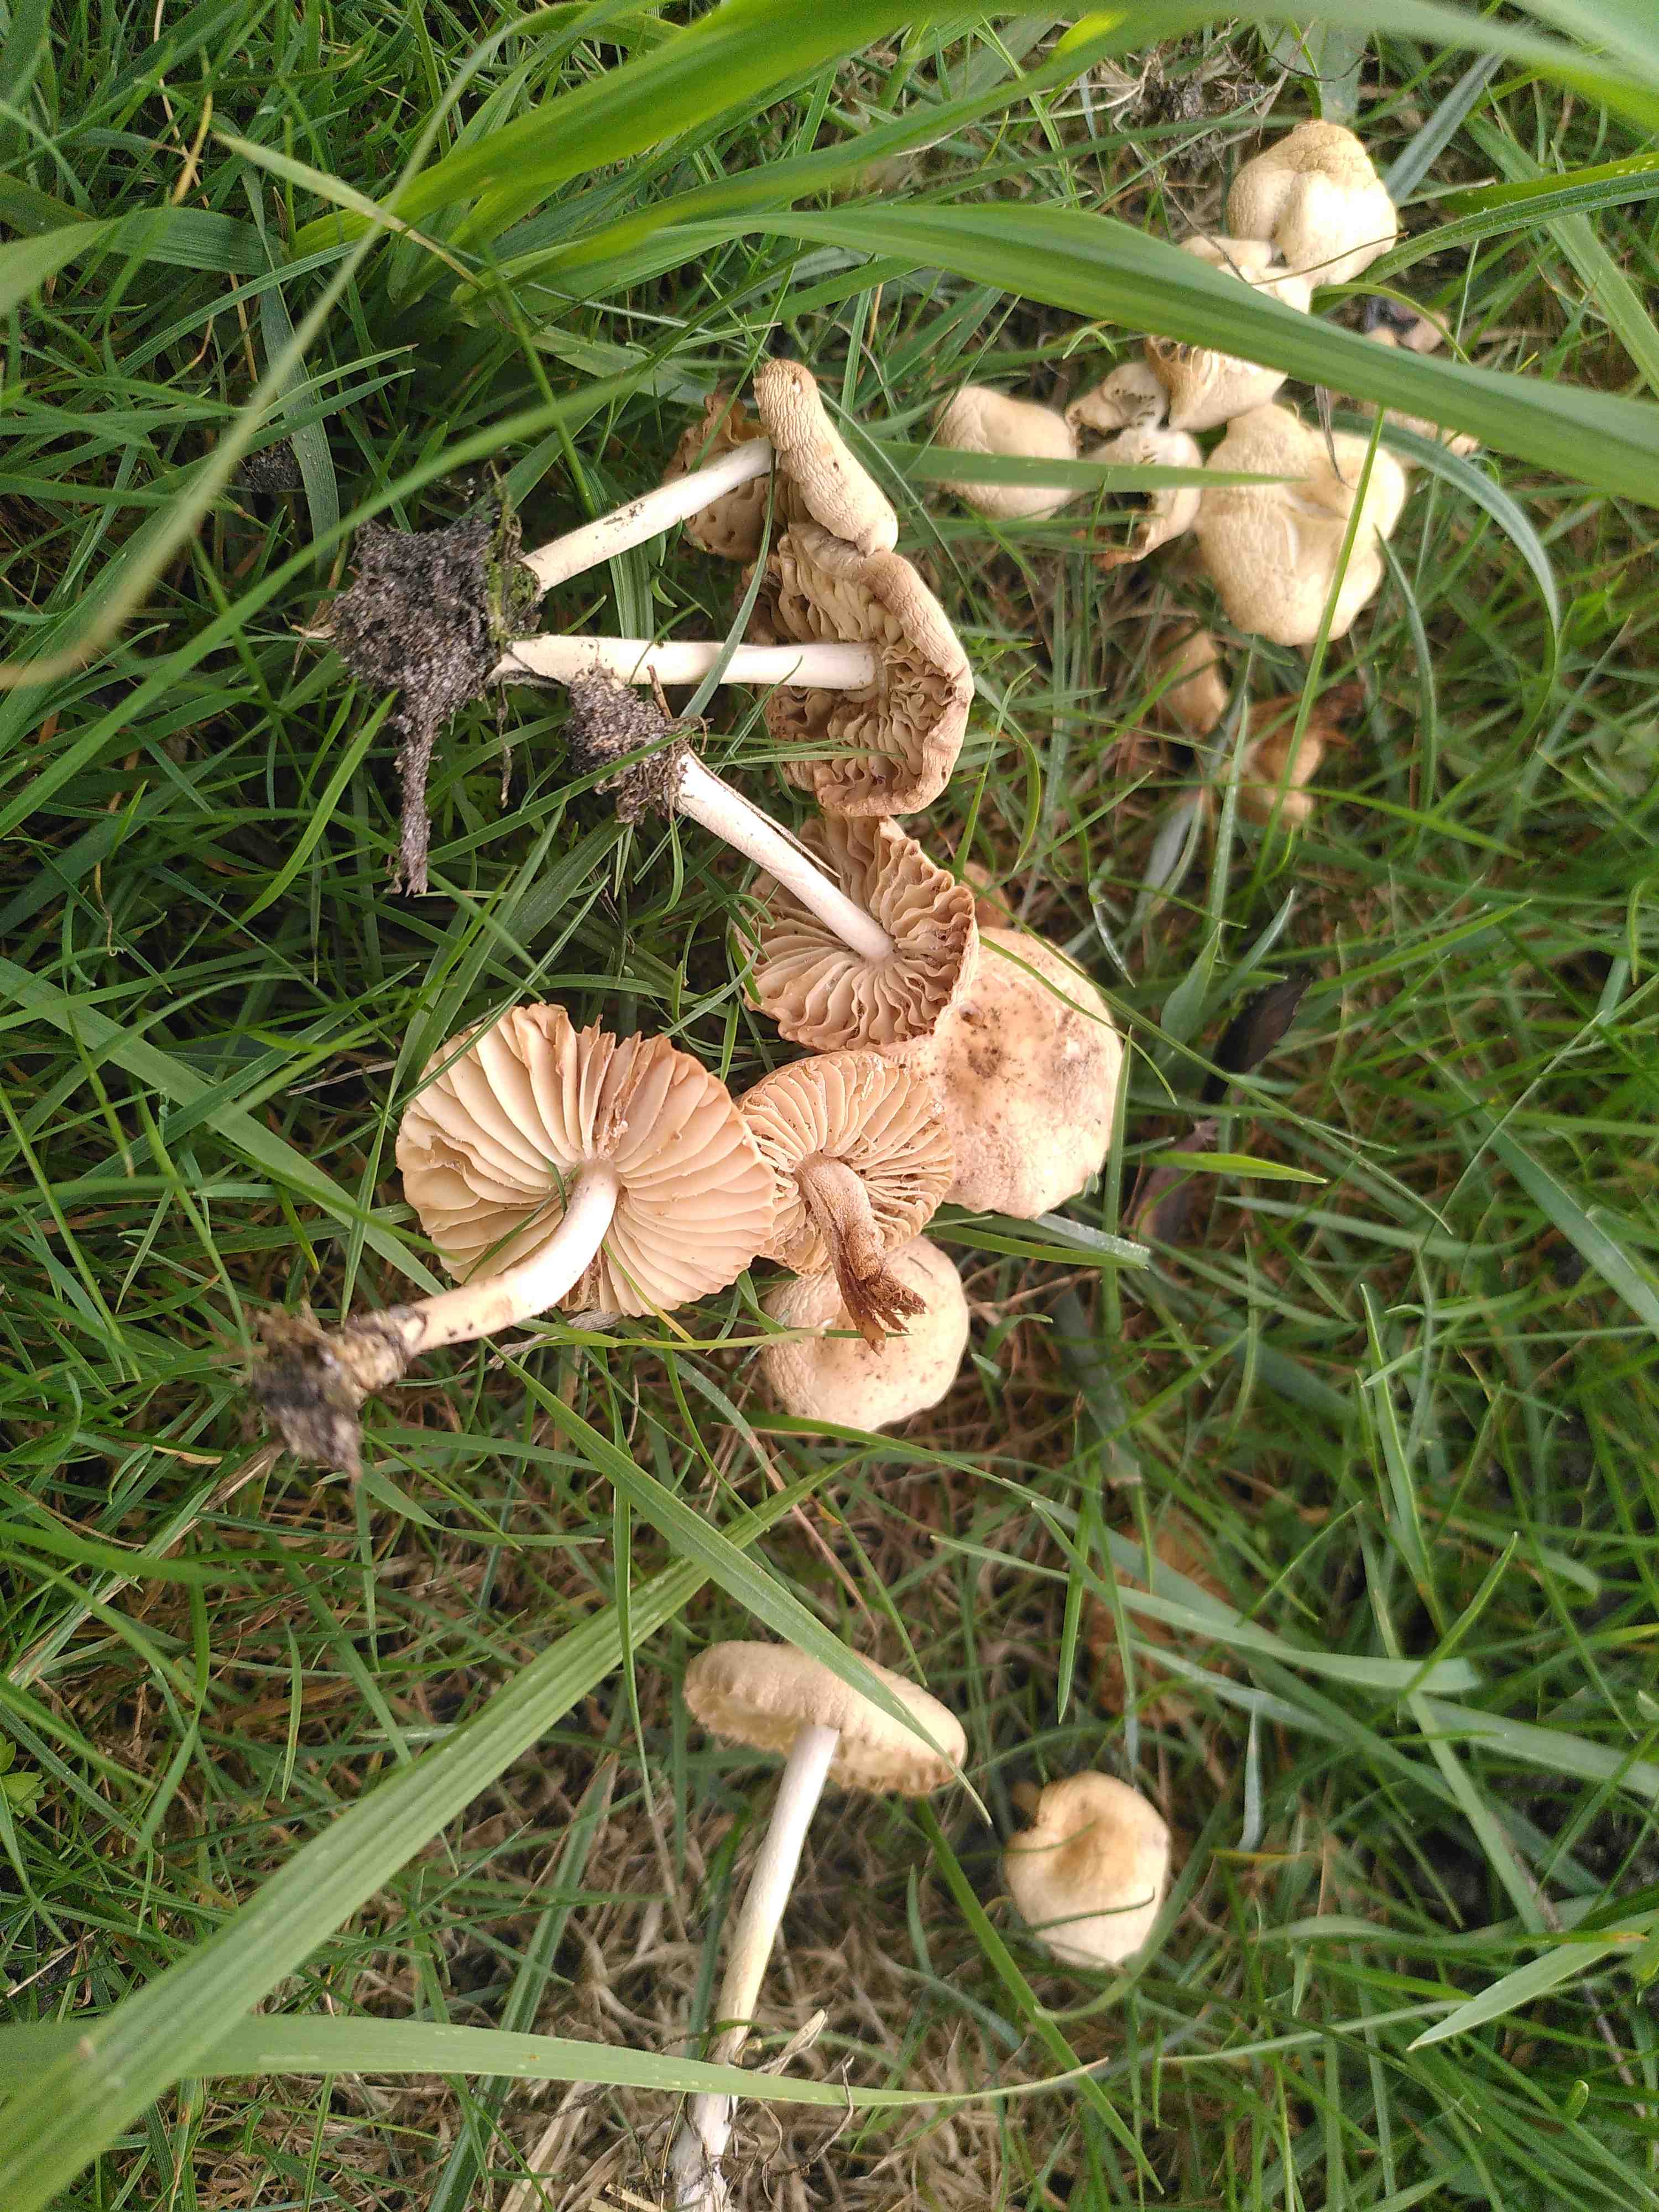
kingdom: Fungi
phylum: Basidiomycota
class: Agaricomycetes
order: Agaricales
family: Marasmiaceae
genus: Marasmius
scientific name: Marasmius oreades
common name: elledans-bruskhat
